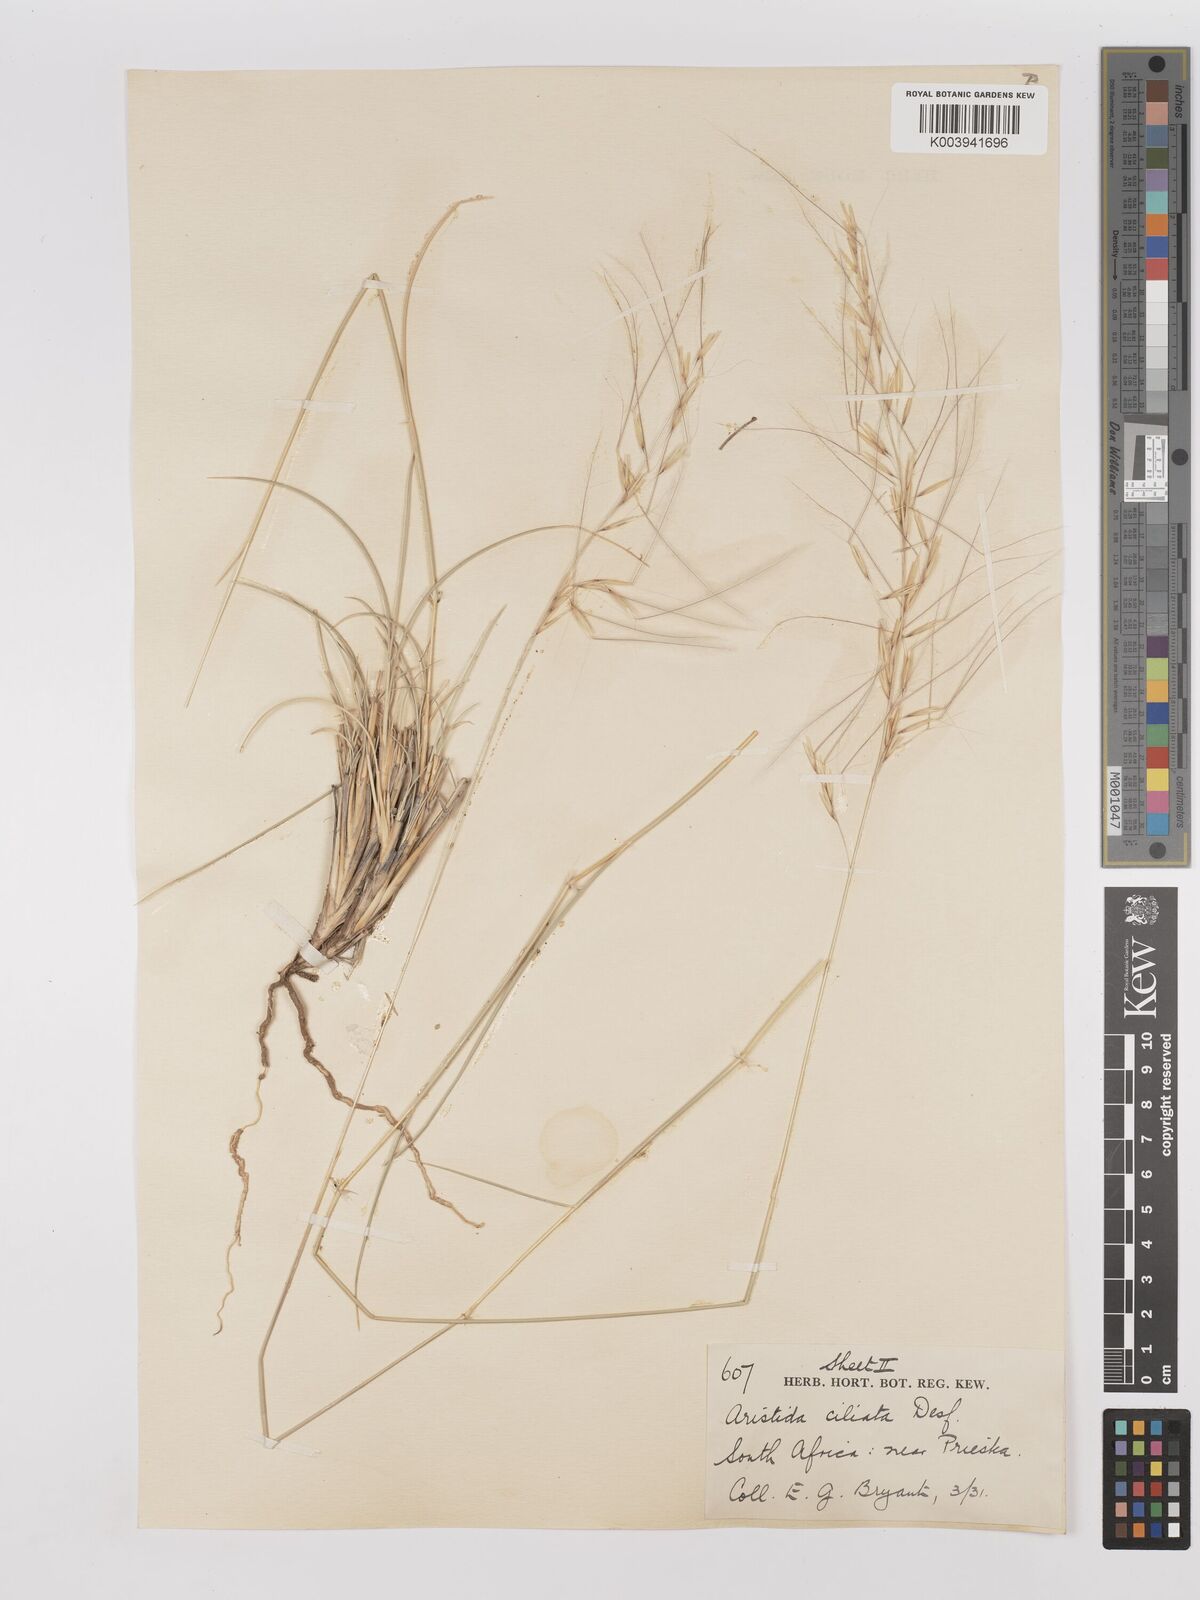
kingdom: Plantae
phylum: Tracheophyta
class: Liliopsida
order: Poales
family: Poaceae
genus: Stipagrostis
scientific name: Stipagrostis ciliata
